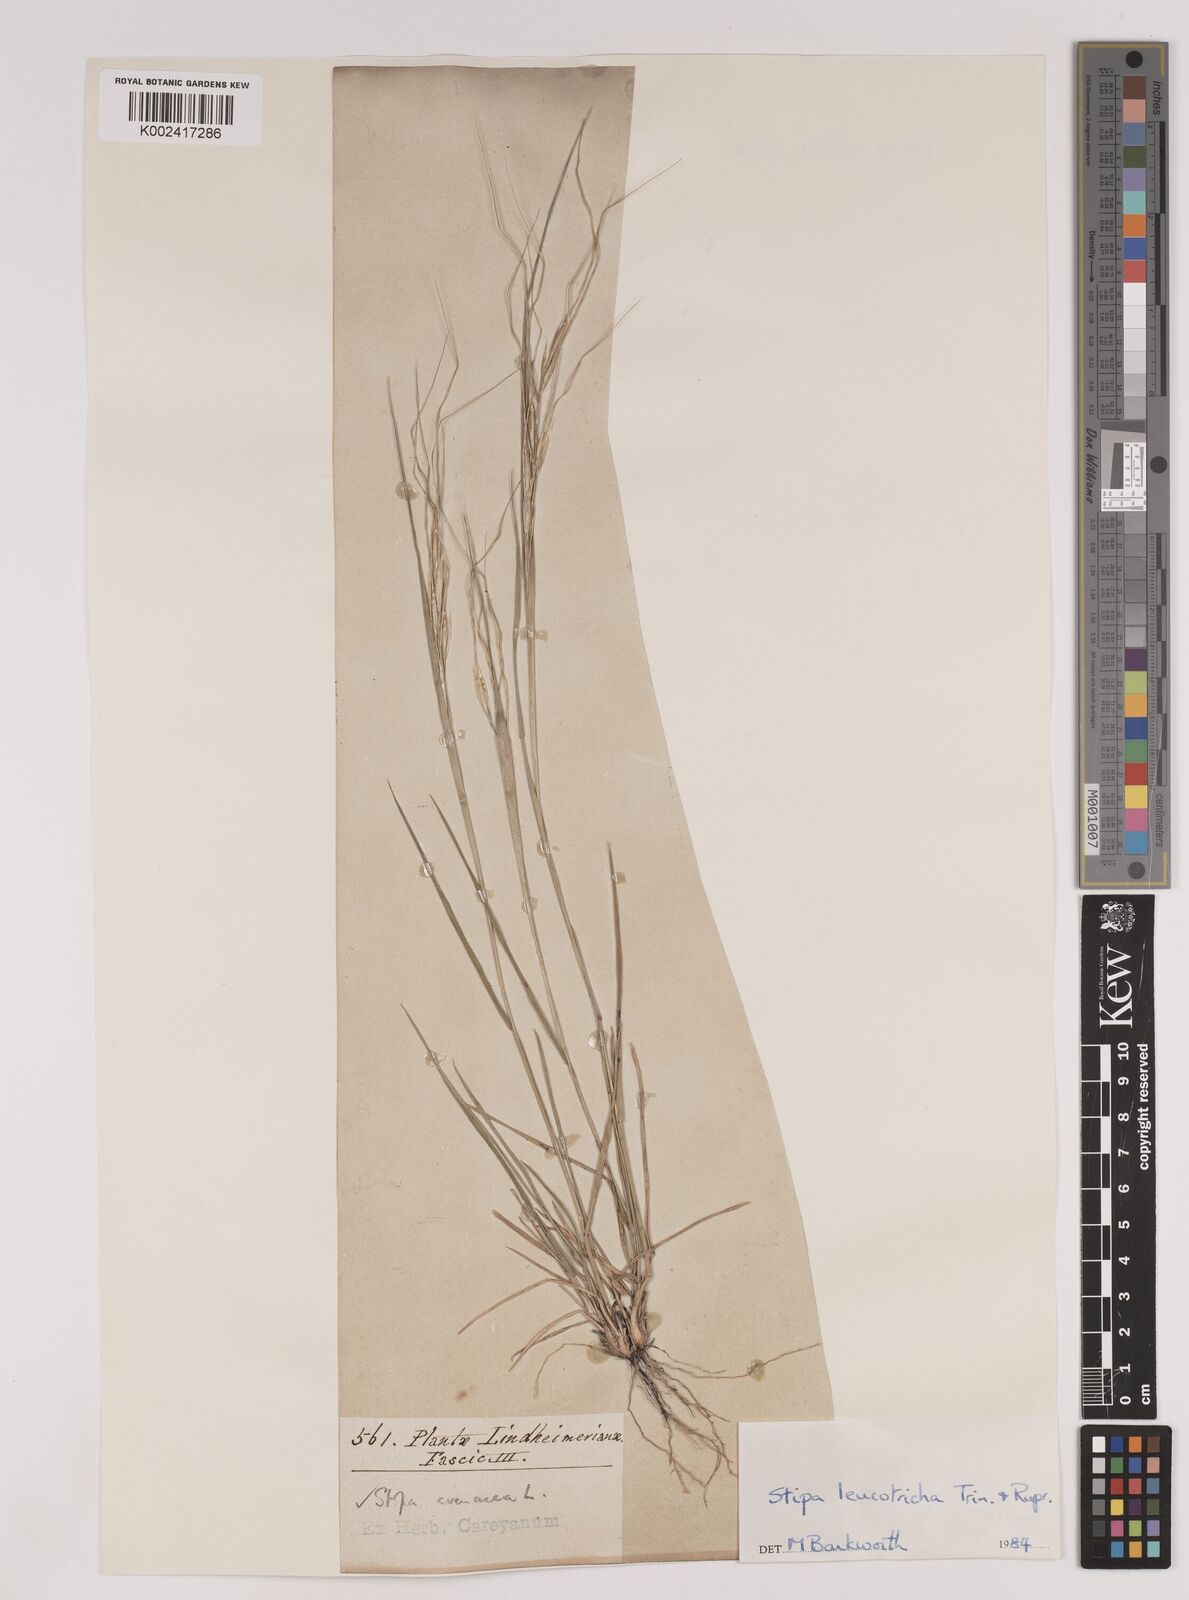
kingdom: Plantae
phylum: Tracheophyta
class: Liliopsida
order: Poales
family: Poaceae
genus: Nassella
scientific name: Nassella leucotricha
